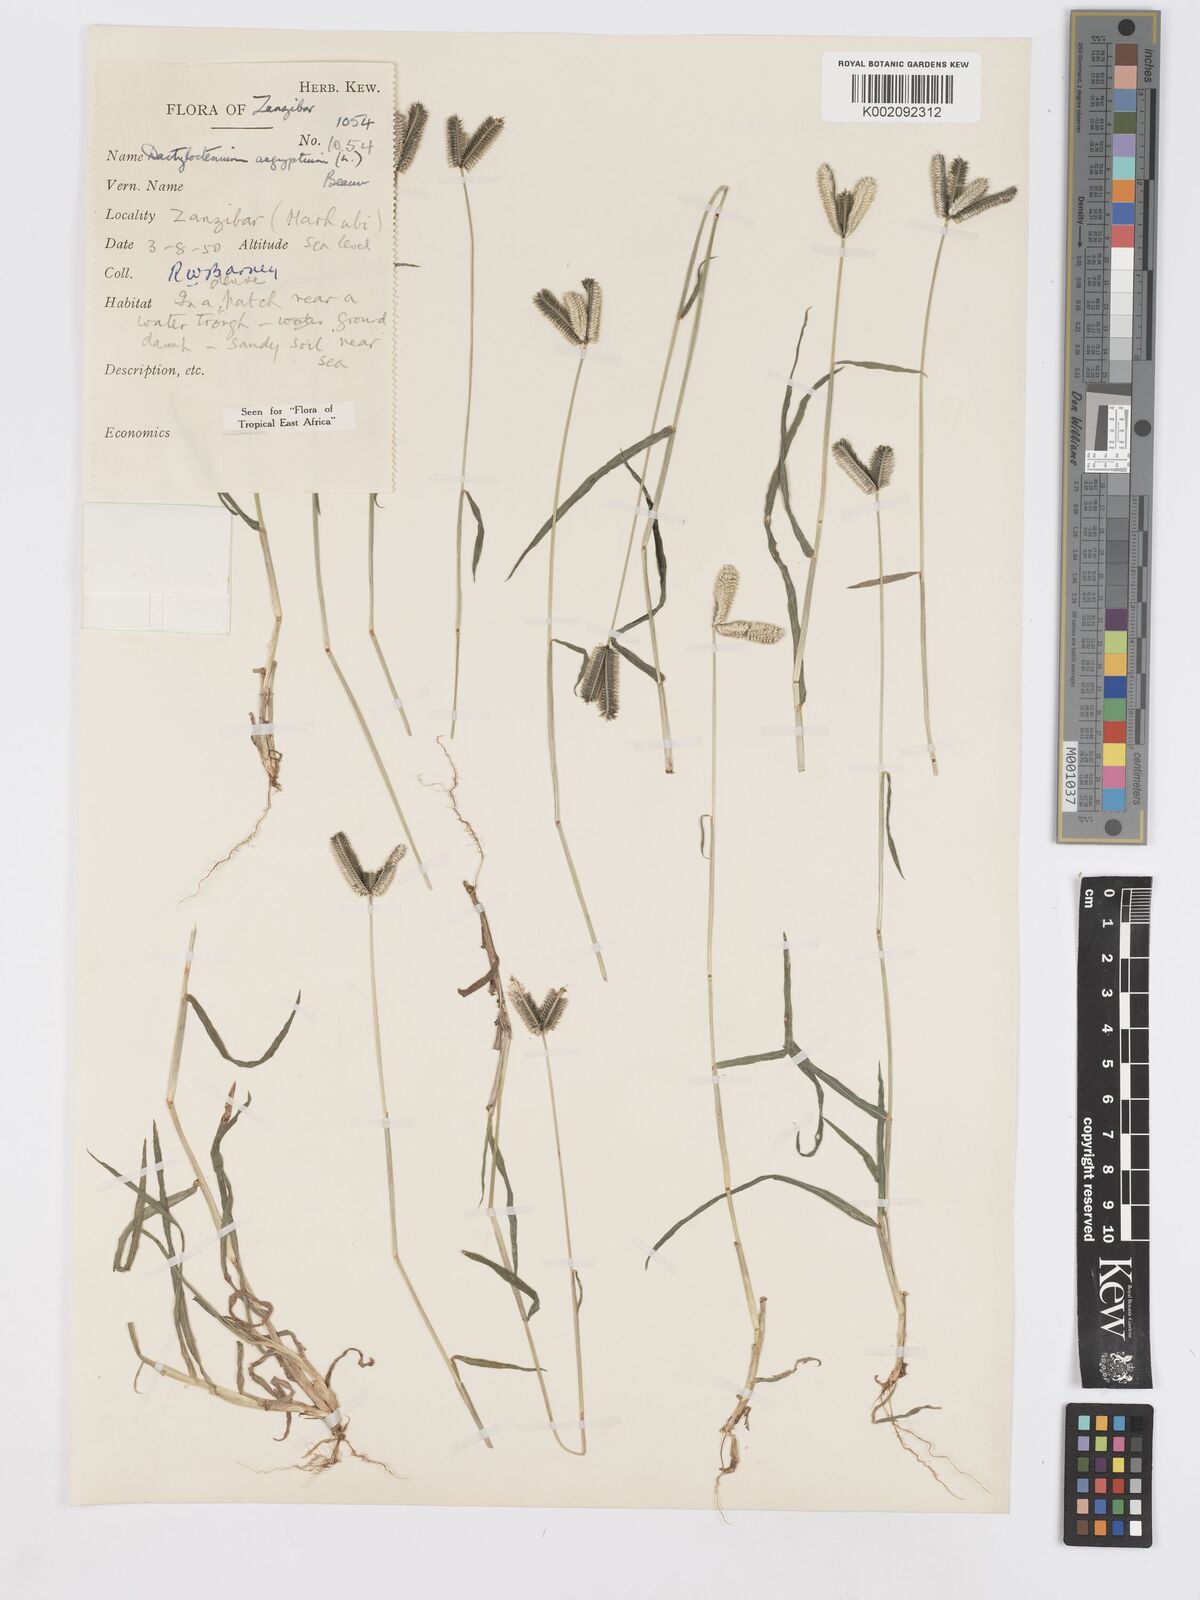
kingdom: Plantae
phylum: Tracheophyta
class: Liliopsida
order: Poales
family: Poaceae
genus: Dactyloctenium
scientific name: Dactyloctenium aristatum
